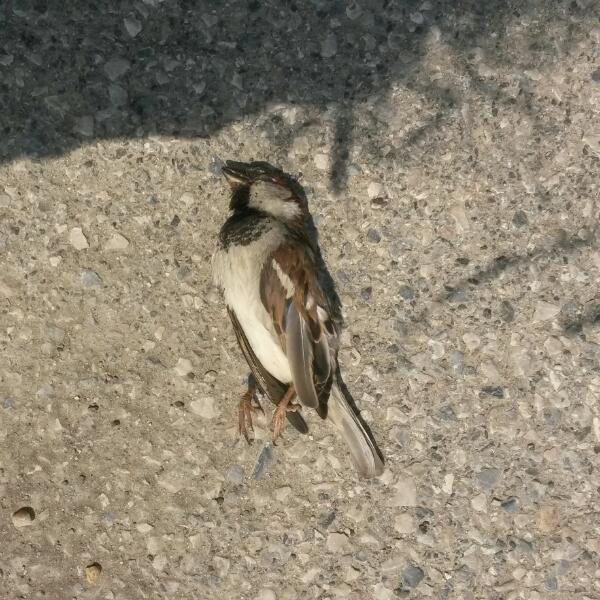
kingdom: Animalia
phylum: Chordata
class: Aves
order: Passeriformes
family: Passeridae
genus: Passer
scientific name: Passer domesticus
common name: House sparrow
